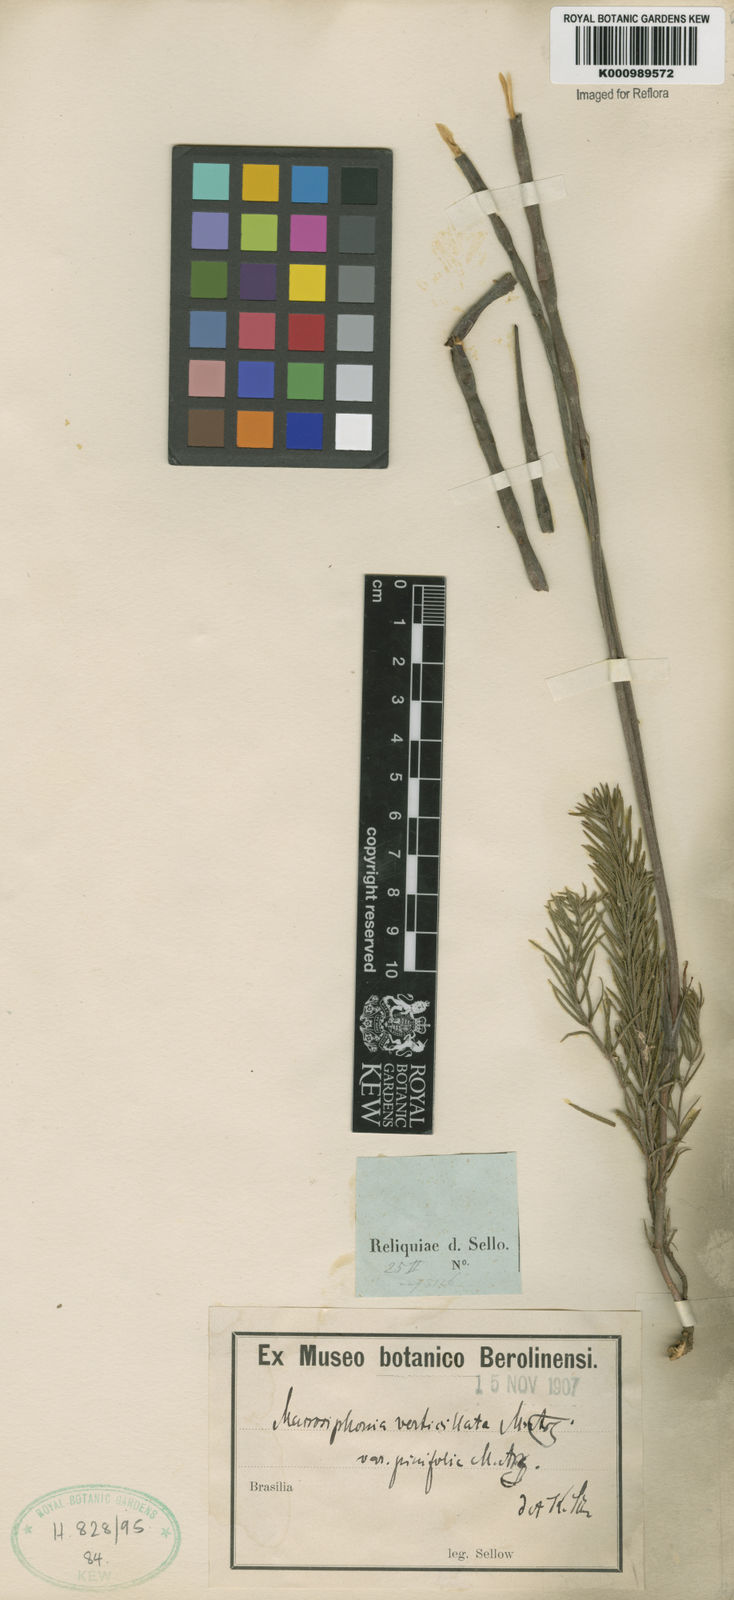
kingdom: Plantae
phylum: Tracheophyta
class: Magnoliopsida
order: Gentianales
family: Apocynaceae
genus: Mandevilla
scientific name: Mandevilla petraea
